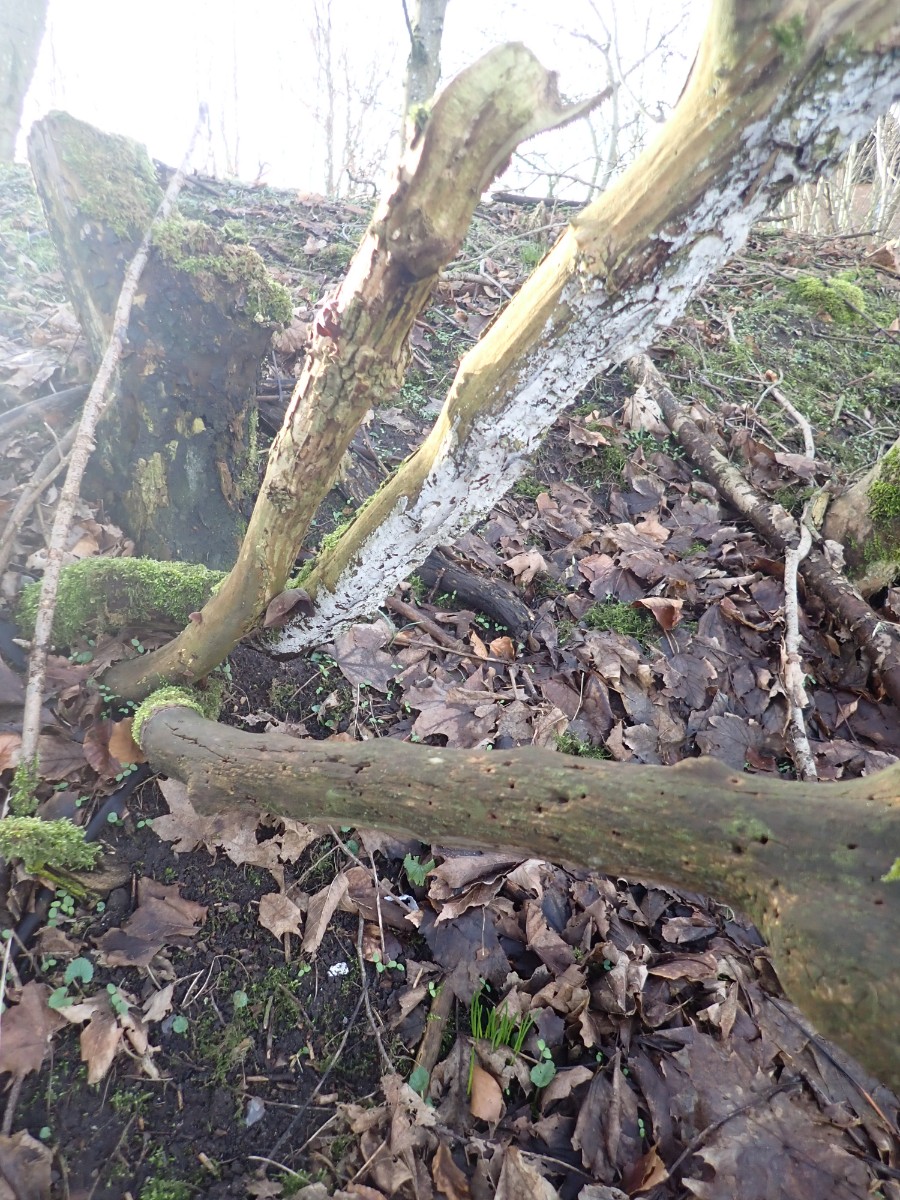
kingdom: Fungi
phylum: Basidiomycota
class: Agaricomycetes
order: Corticiales
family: Corticiaceae
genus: Lyomyces
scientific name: Lyomyces sambuci
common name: almindelig hyldehinde
